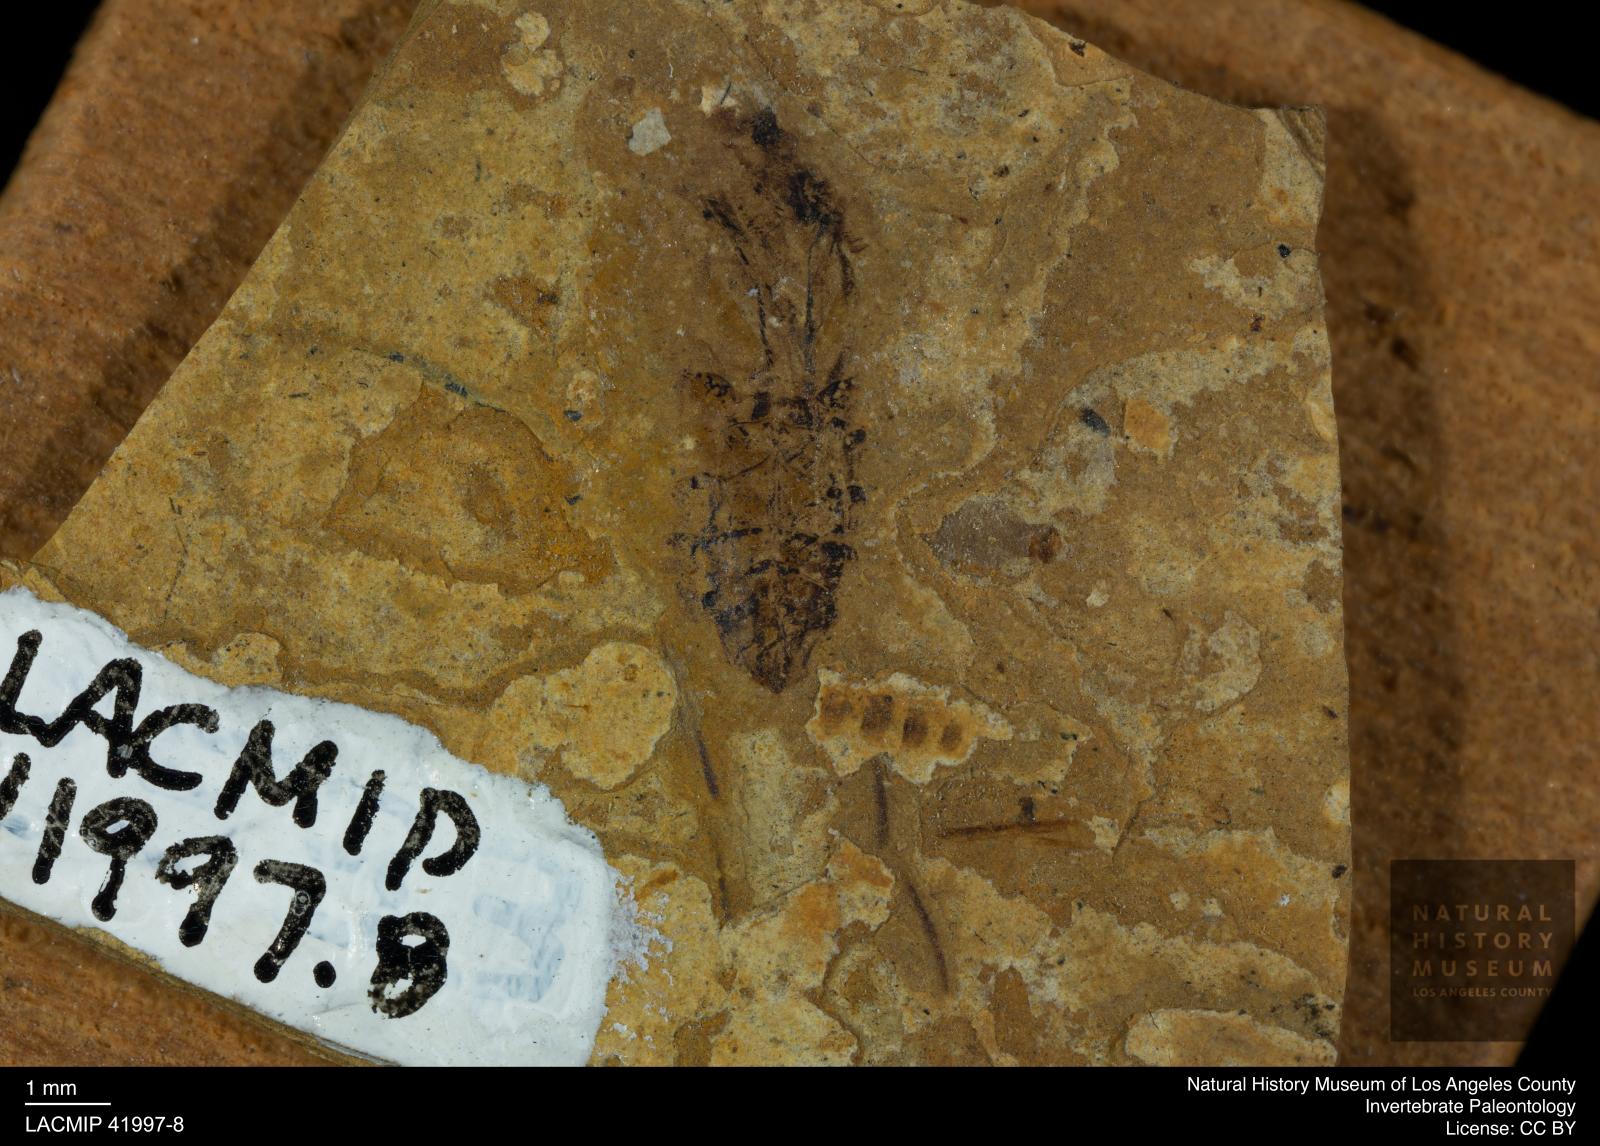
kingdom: Animalia
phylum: Arthropoda
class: Insecta
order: Hemiptera
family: Notonectidae
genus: Anisops
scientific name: Anisops Notonecta deichmuelleri
